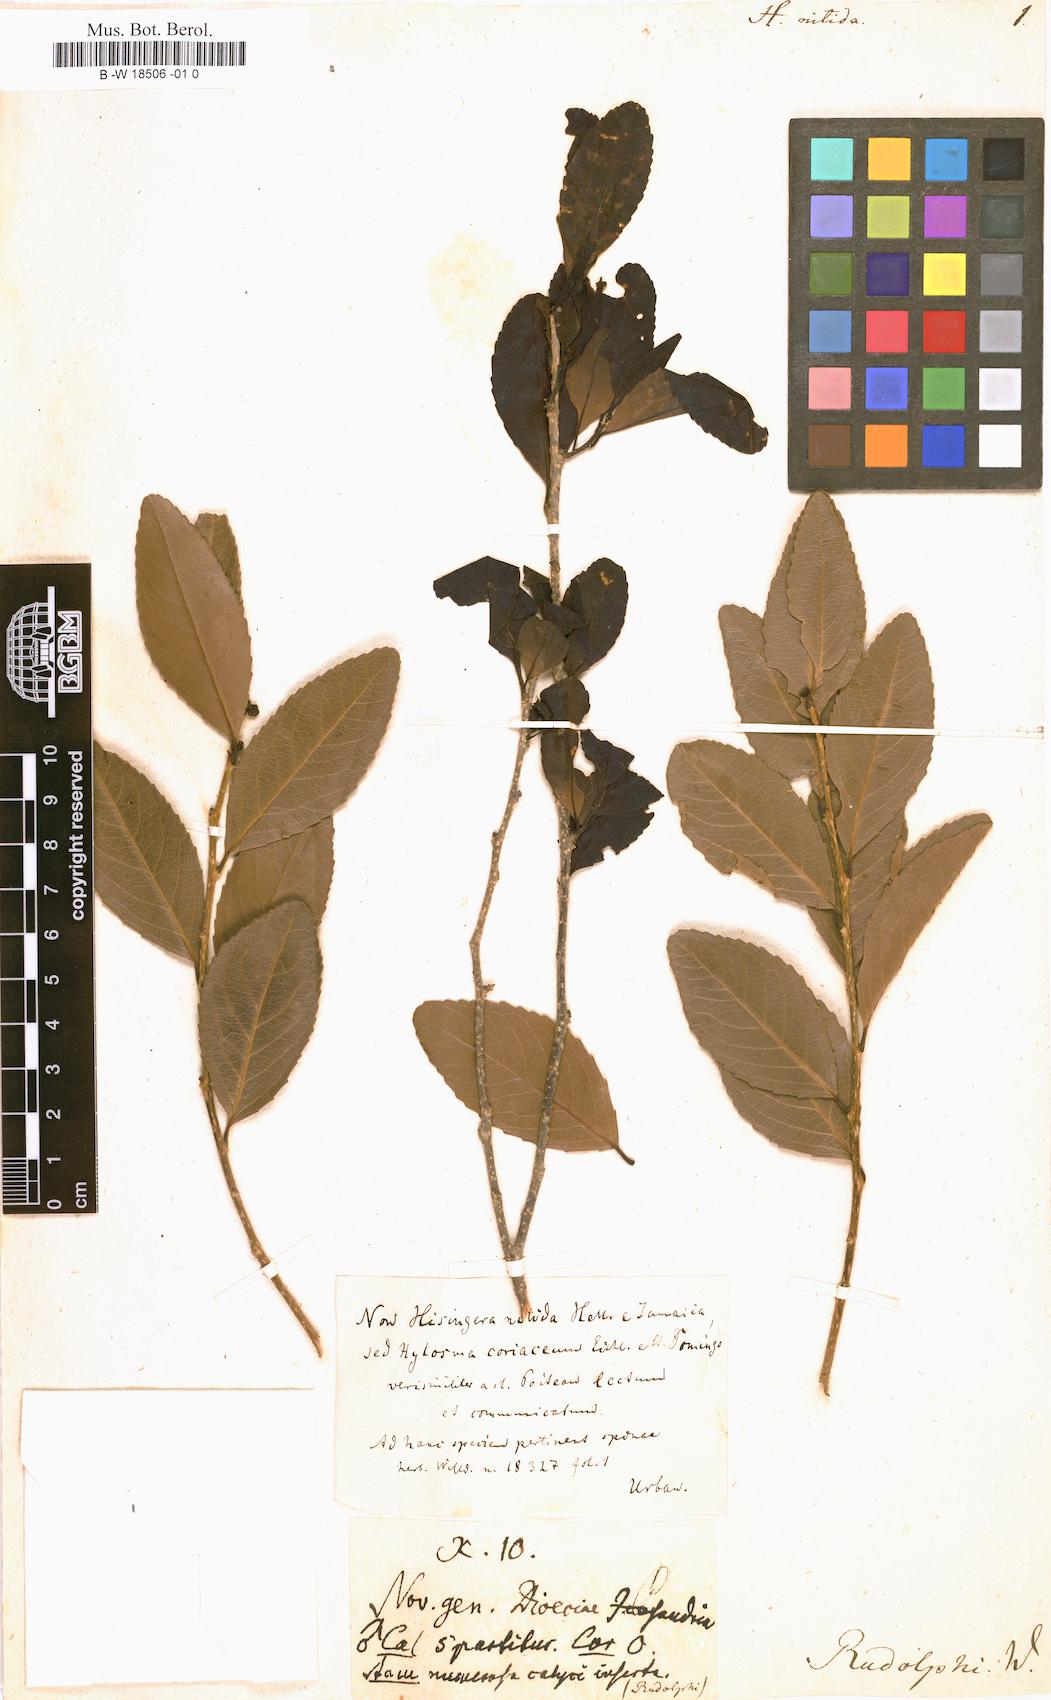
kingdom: Plantae
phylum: Tracheophyta
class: Magnoliopsida
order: Malpighiales
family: Salicaceae
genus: Xylosma
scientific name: Xylosma nitida
